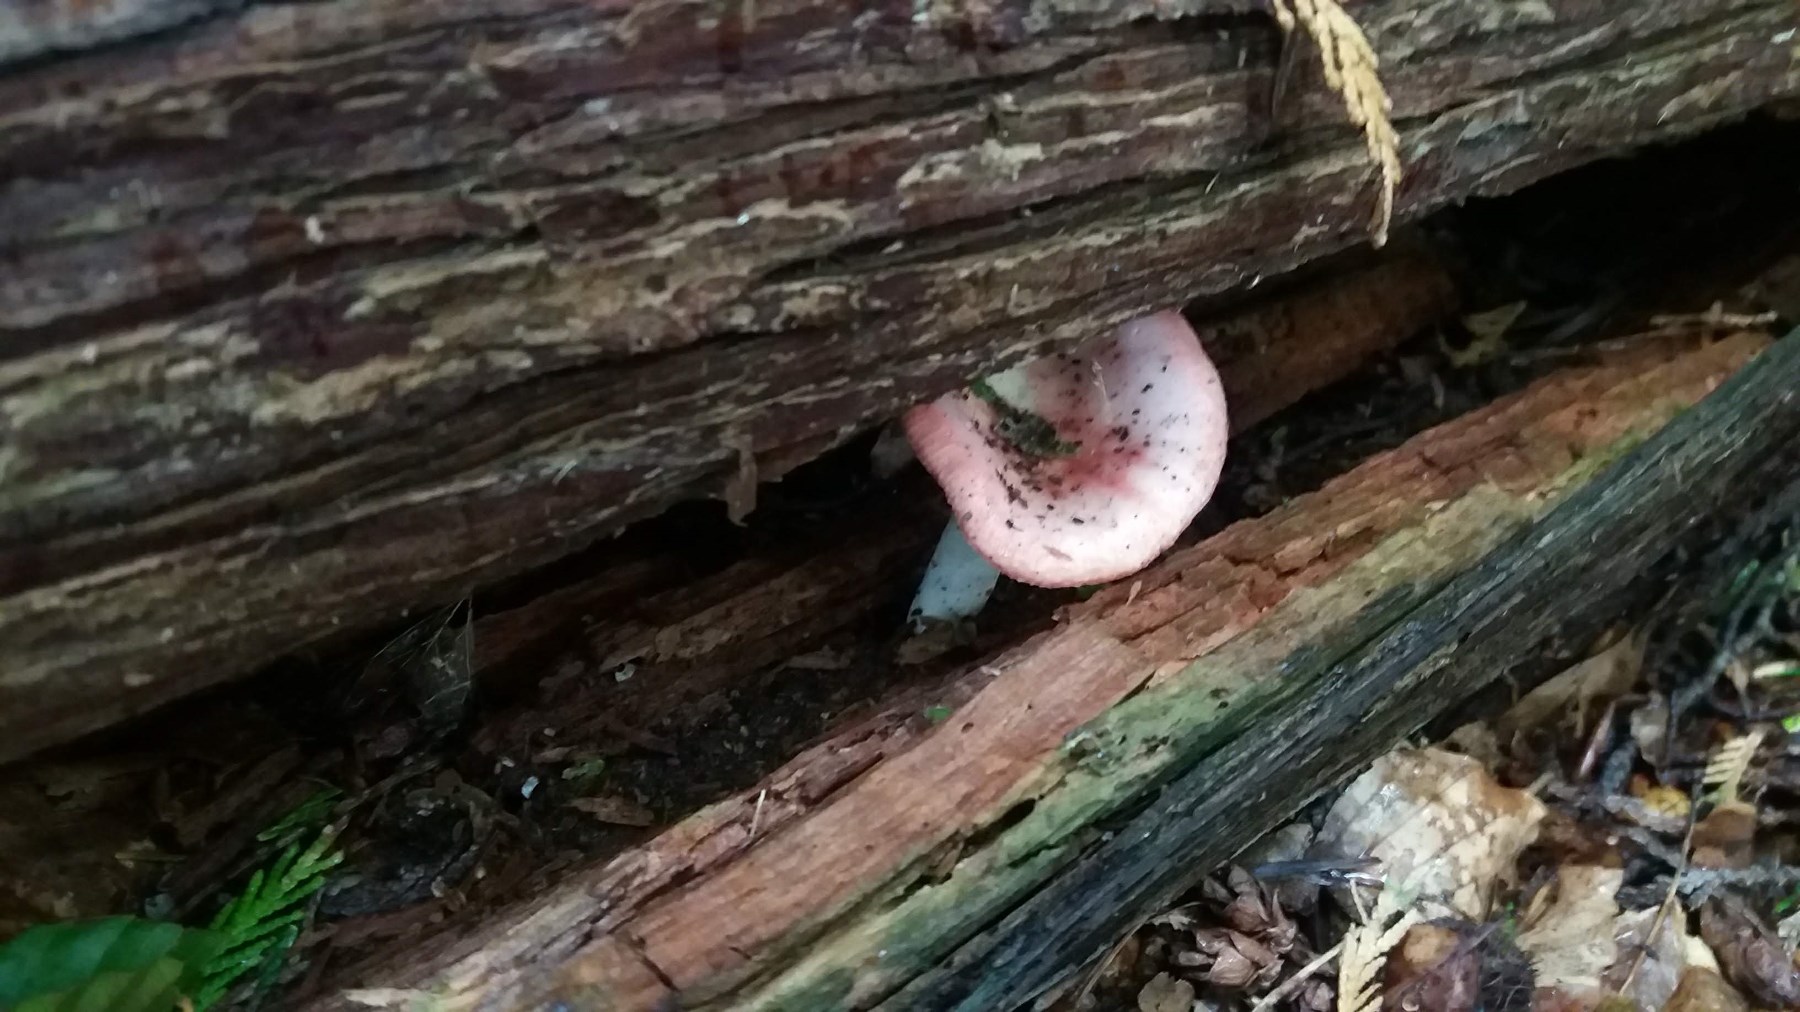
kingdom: Fungi
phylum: Basidiomycota
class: Agaricomycetes
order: Russulales
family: Russulaceae
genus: Russula
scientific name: Russula
